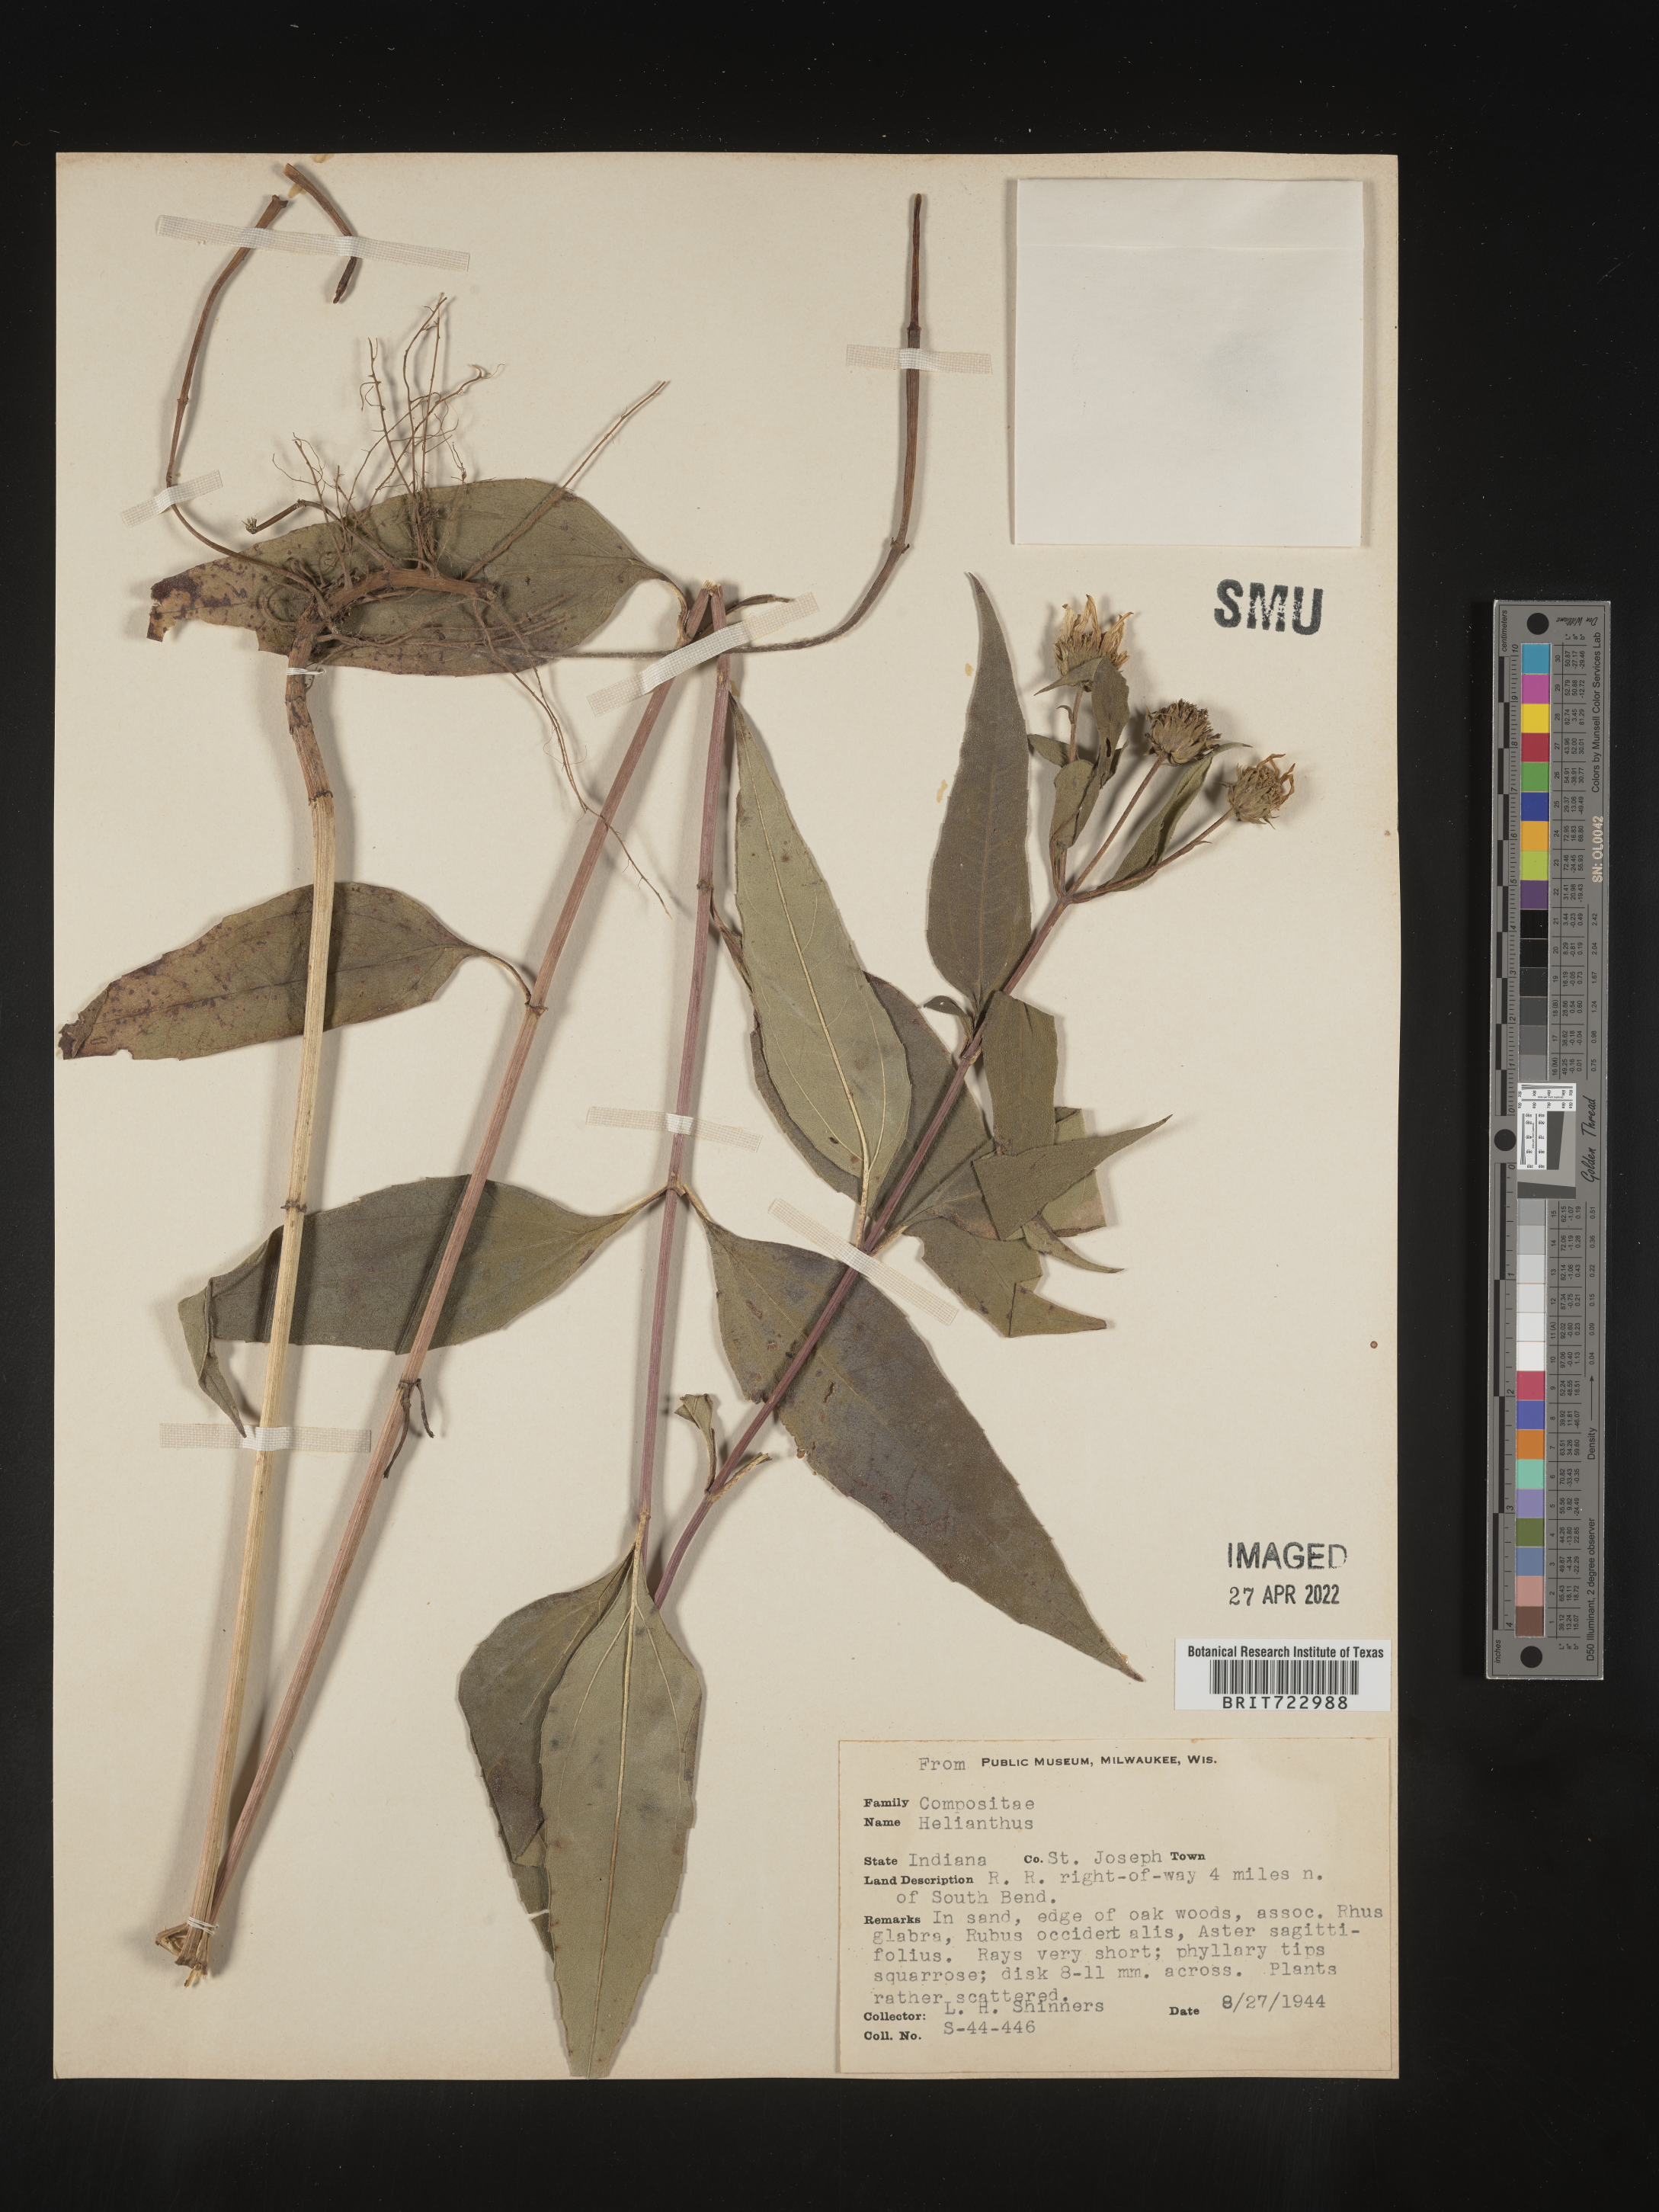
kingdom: Plantae
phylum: Tracheophyta
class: Magnoliopsida
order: Asterales
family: Asteraceae
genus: Helianthus
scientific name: Helianthus
